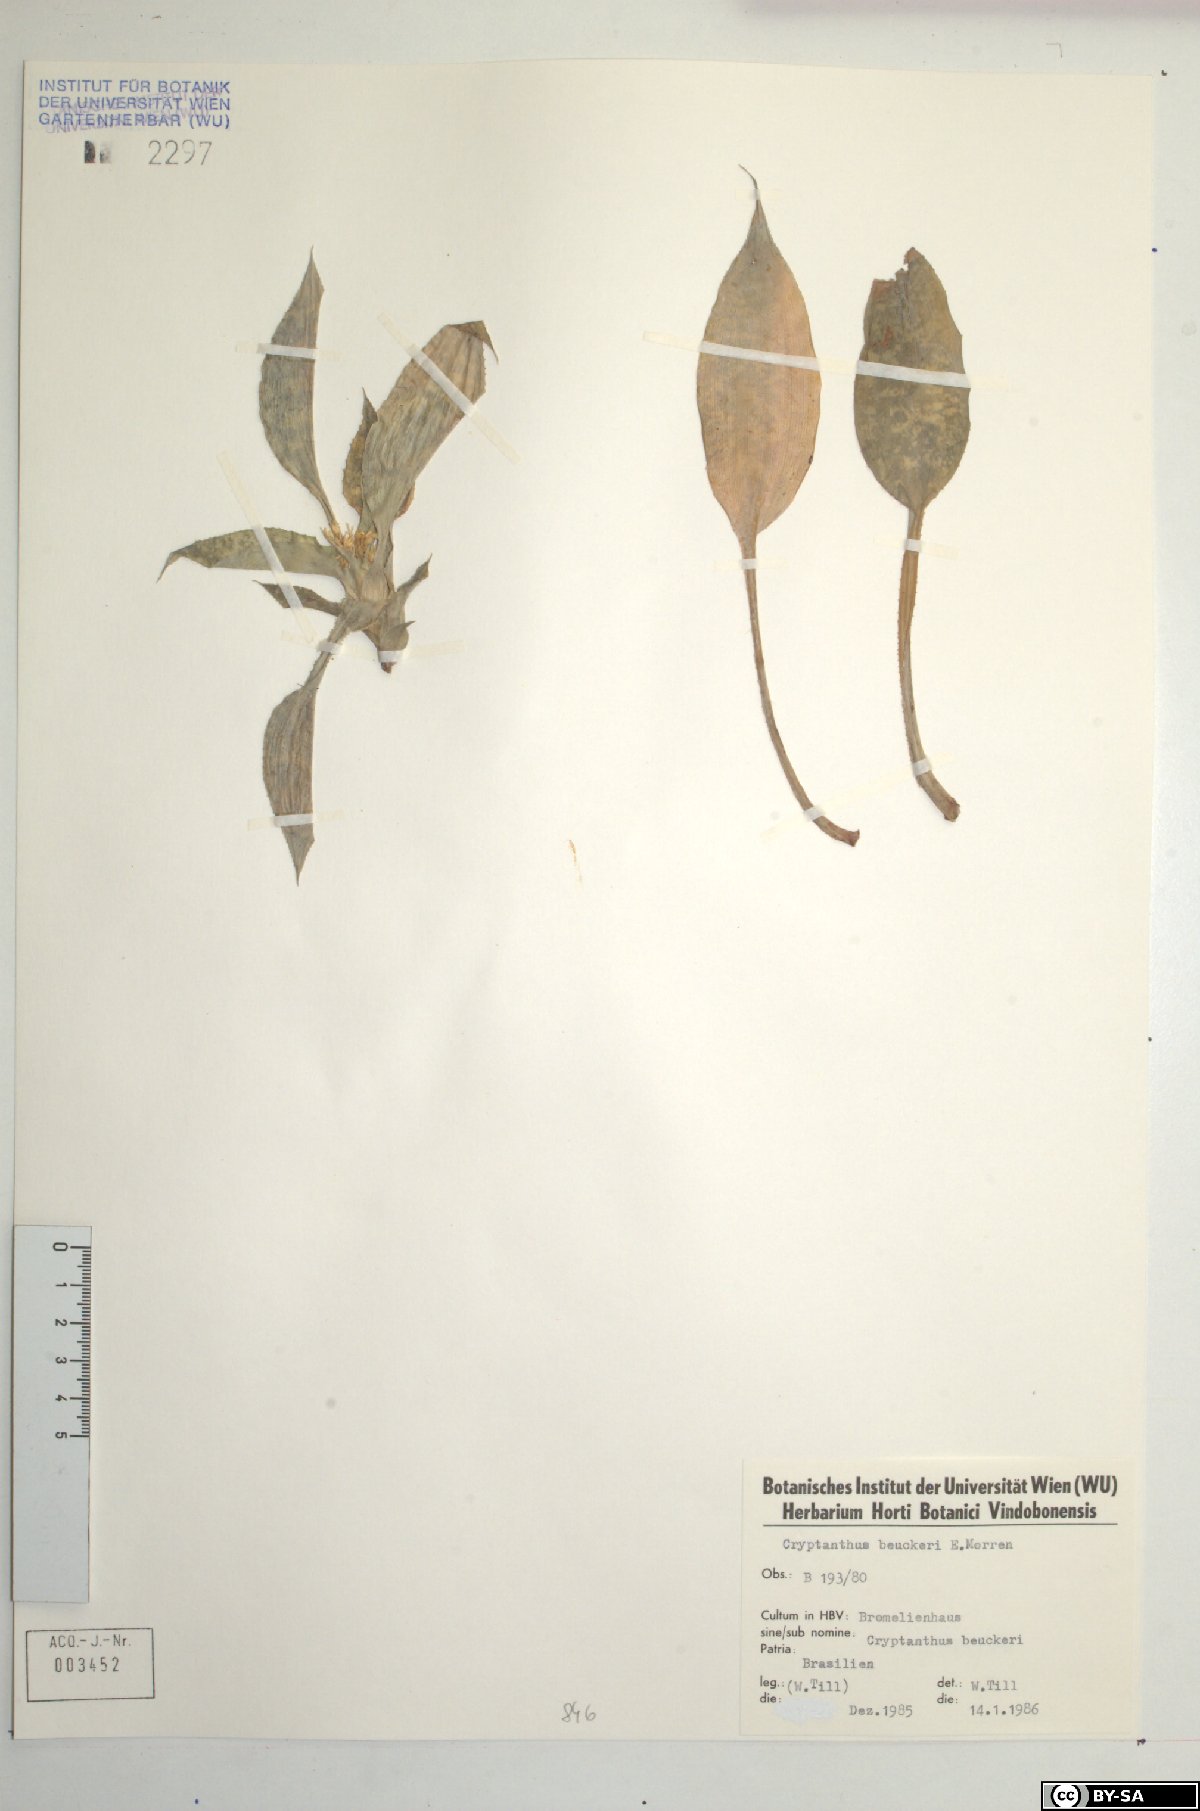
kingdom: Plantae
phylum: Tracheophyta
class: Liliopsida
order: Poales
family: Bromeliaceae
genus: Cryptanthus
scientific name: Cryptanthus beuckeri
